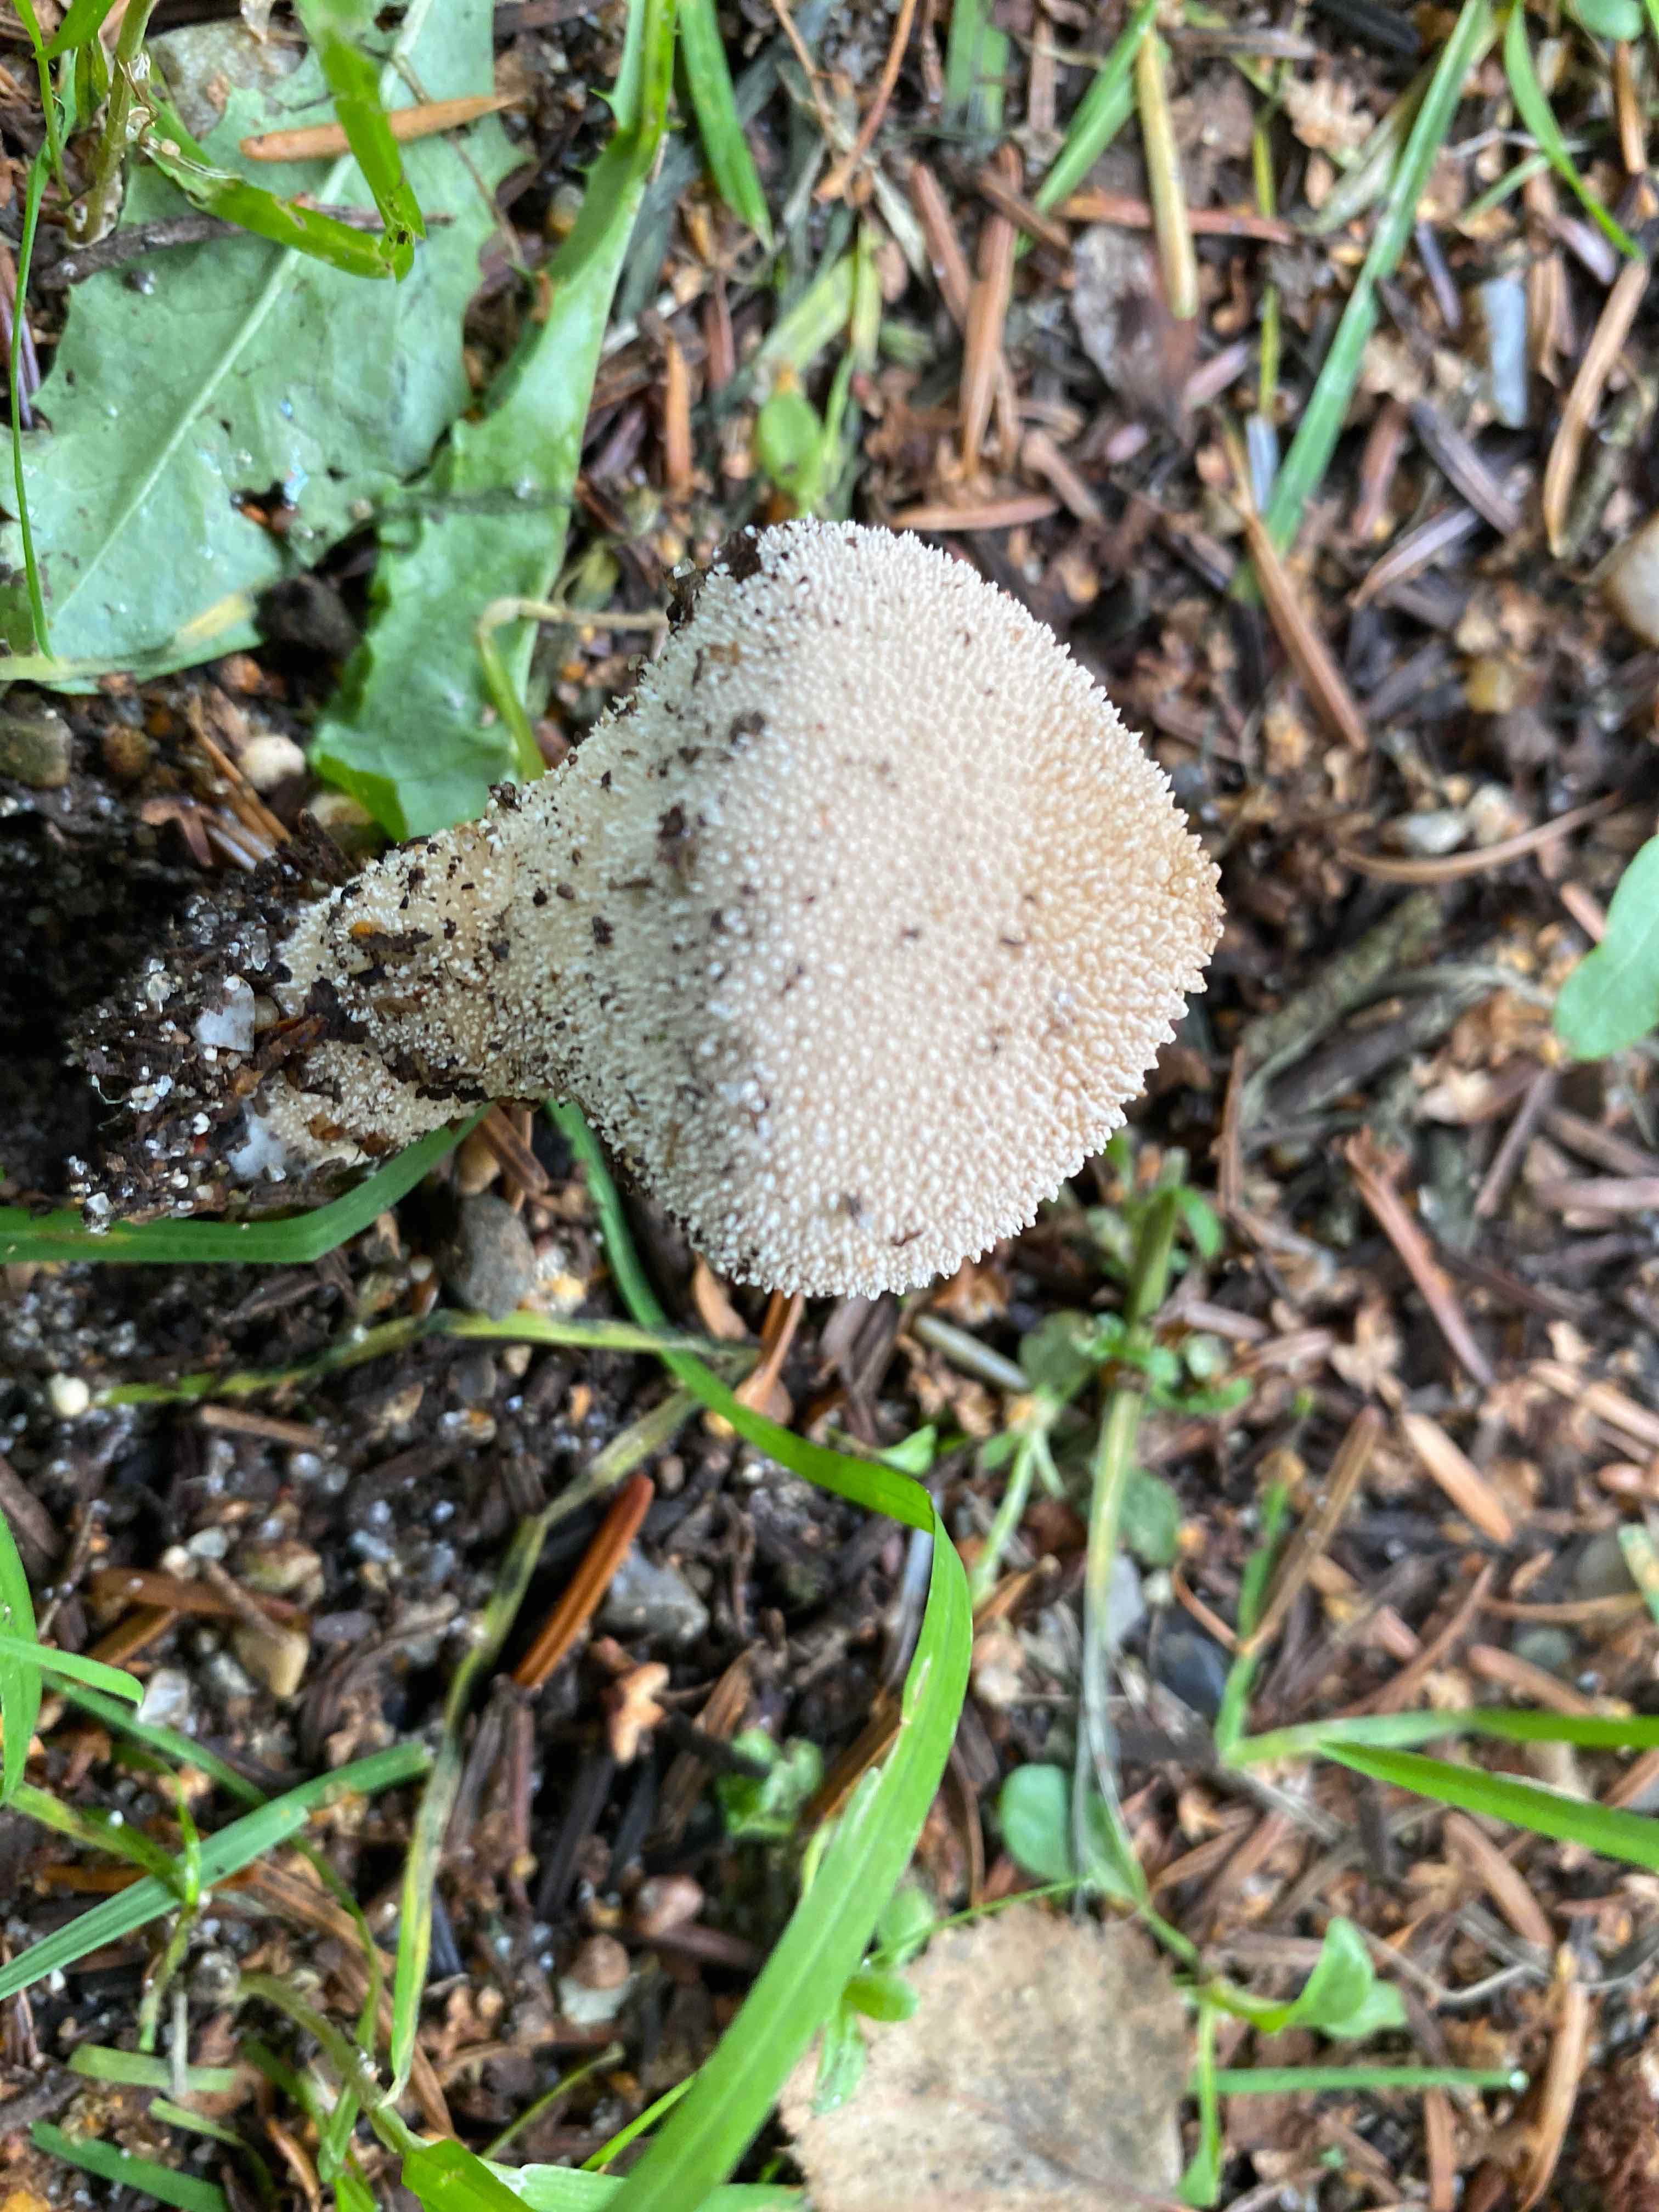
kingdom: Fungi
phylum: Basidiomycota
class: Agaricomycetes
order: Agaricales
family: Lycoperdaceae
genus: Lycoperdon
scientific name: Lycoperdon perlatum
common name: krystal-støvbold
